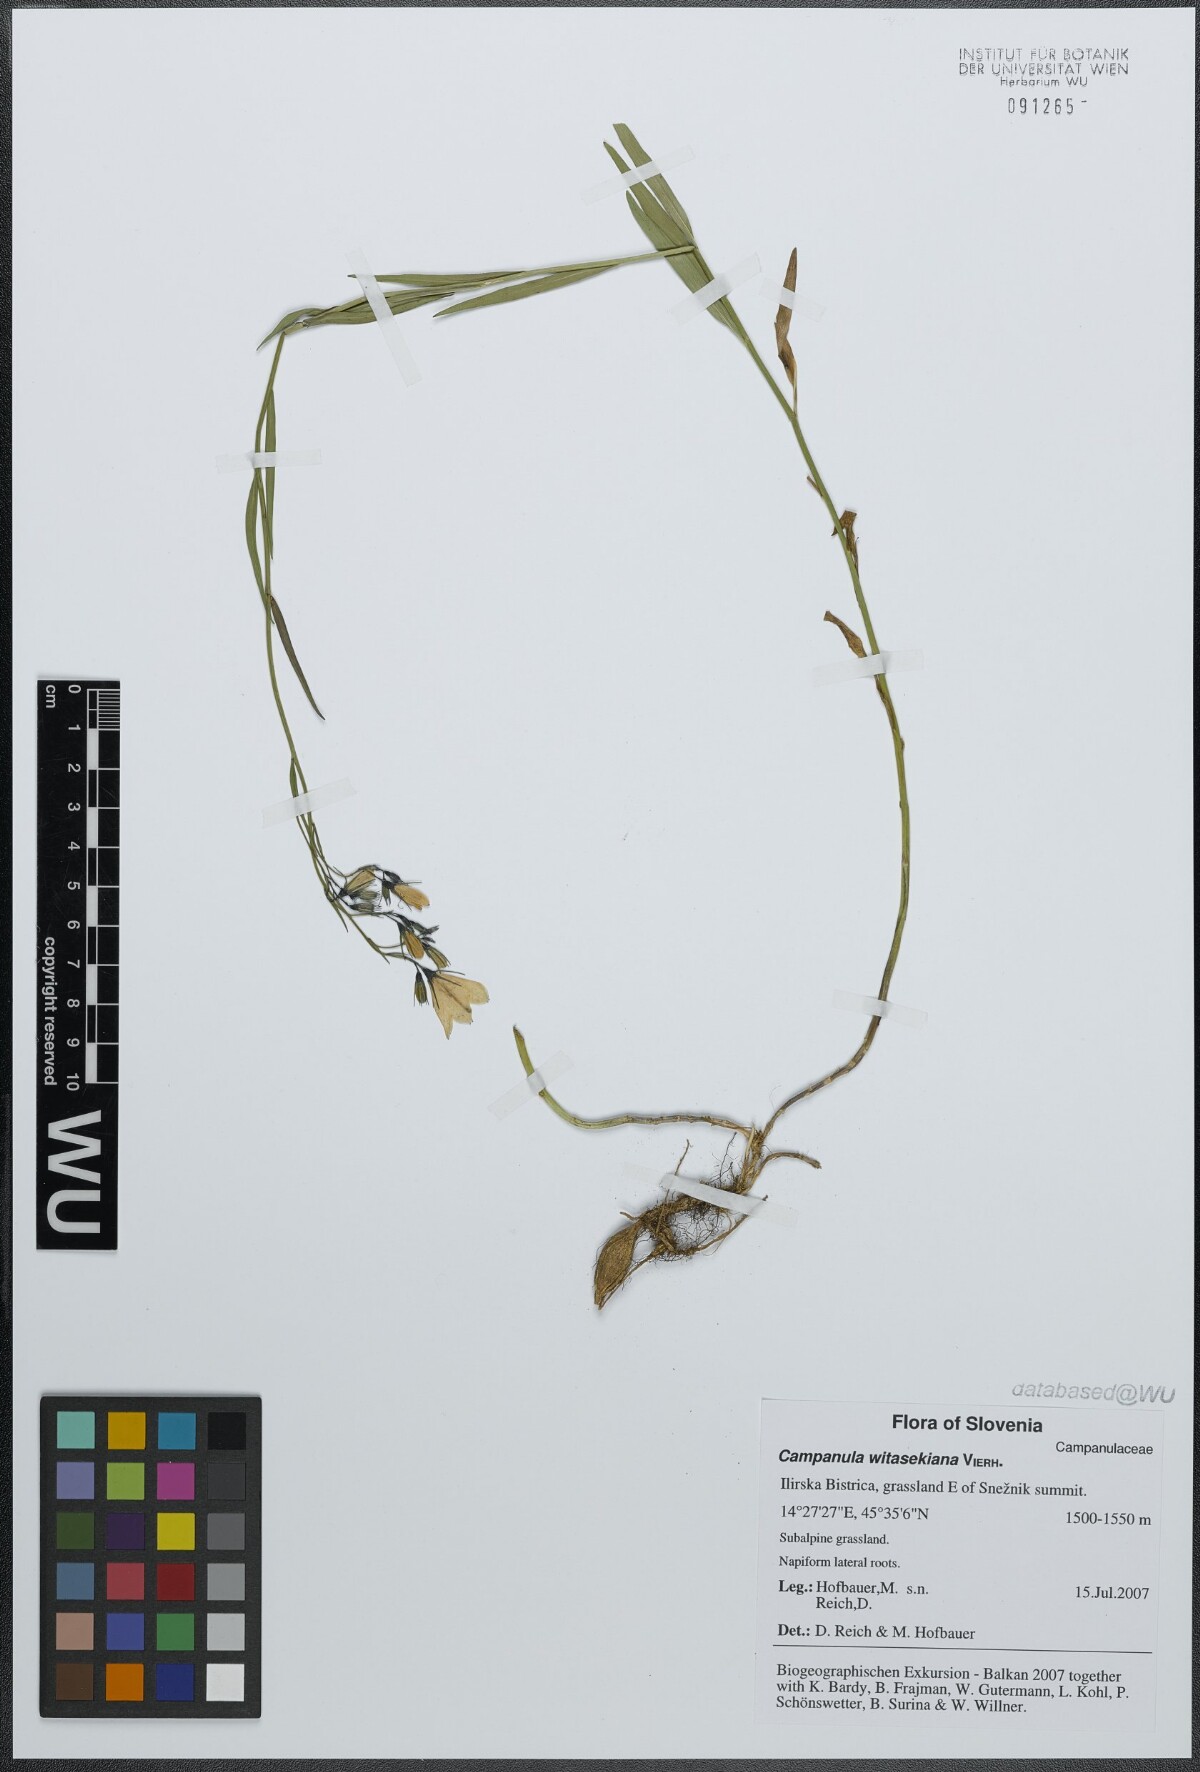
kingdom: Plantae
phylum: Tracheophyta
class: Magnoliopsida
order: Asterales
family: Campanulaceae
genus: Campanula
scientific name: Campanula witasekiana
